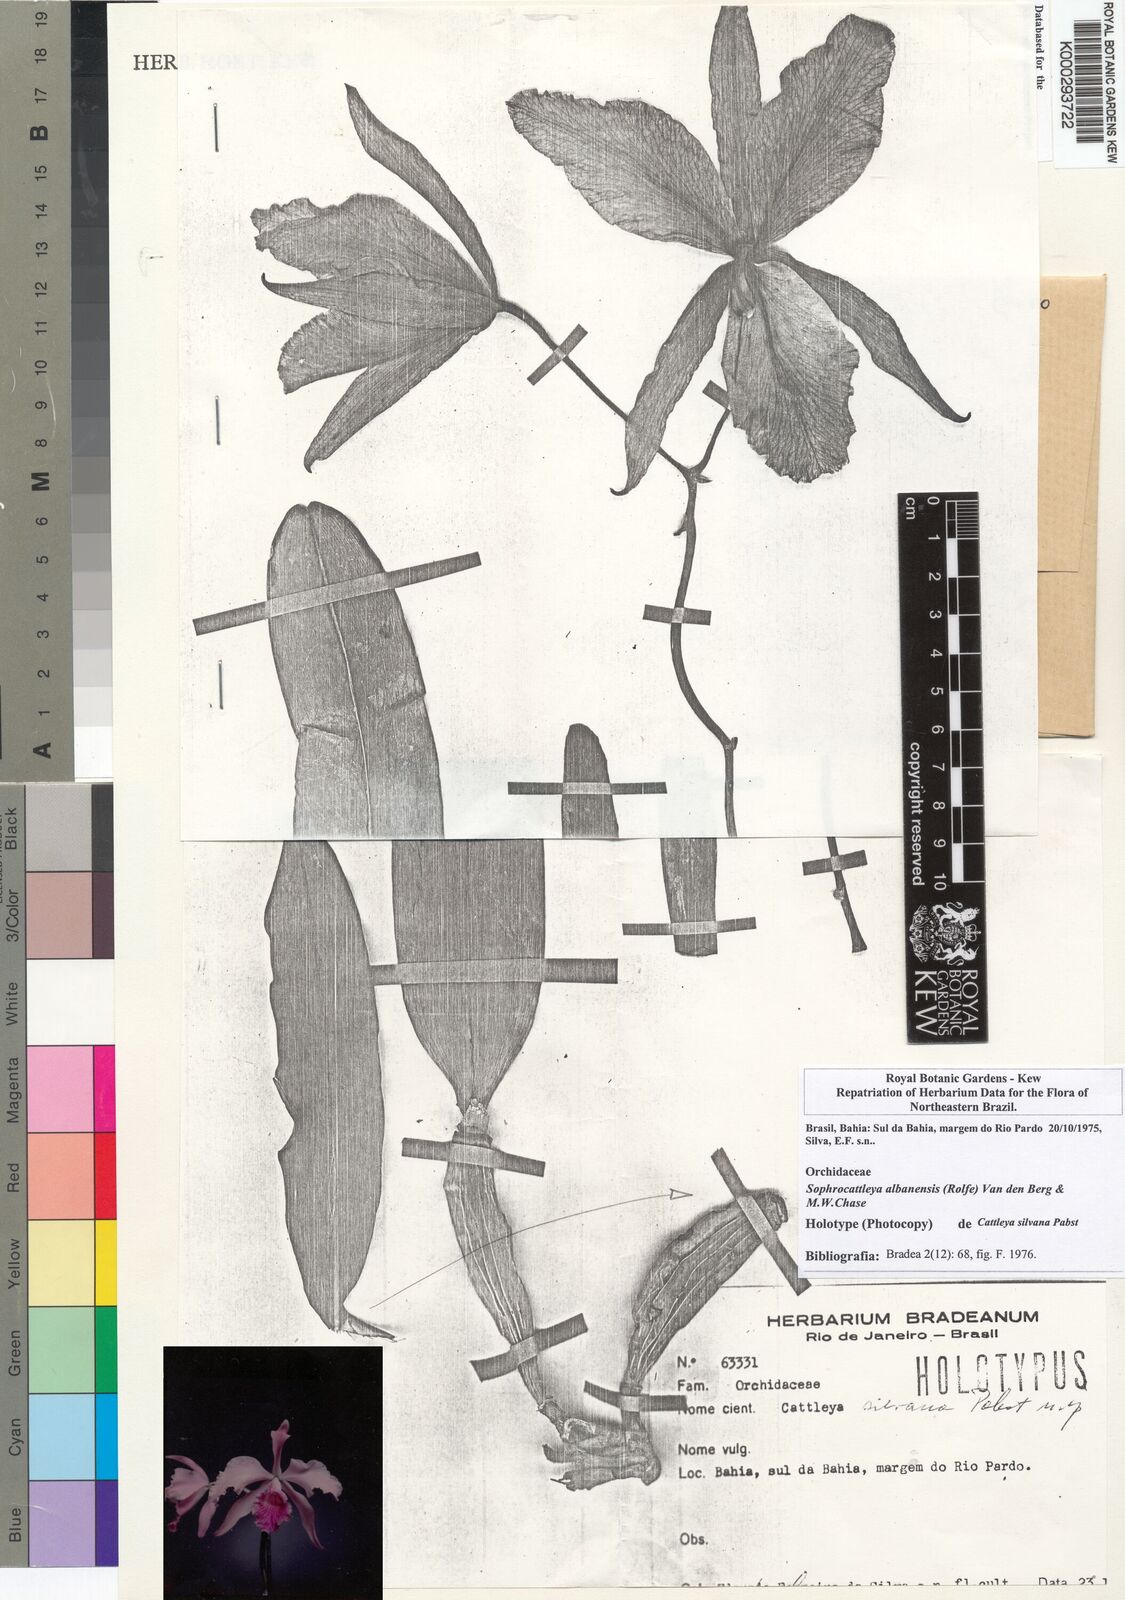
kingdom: Plantae
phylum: Tracheophyta
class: Liliopsida
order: Asparagales
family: Orchidaceae
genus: Cattleya
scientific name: Cattleya albanensis
